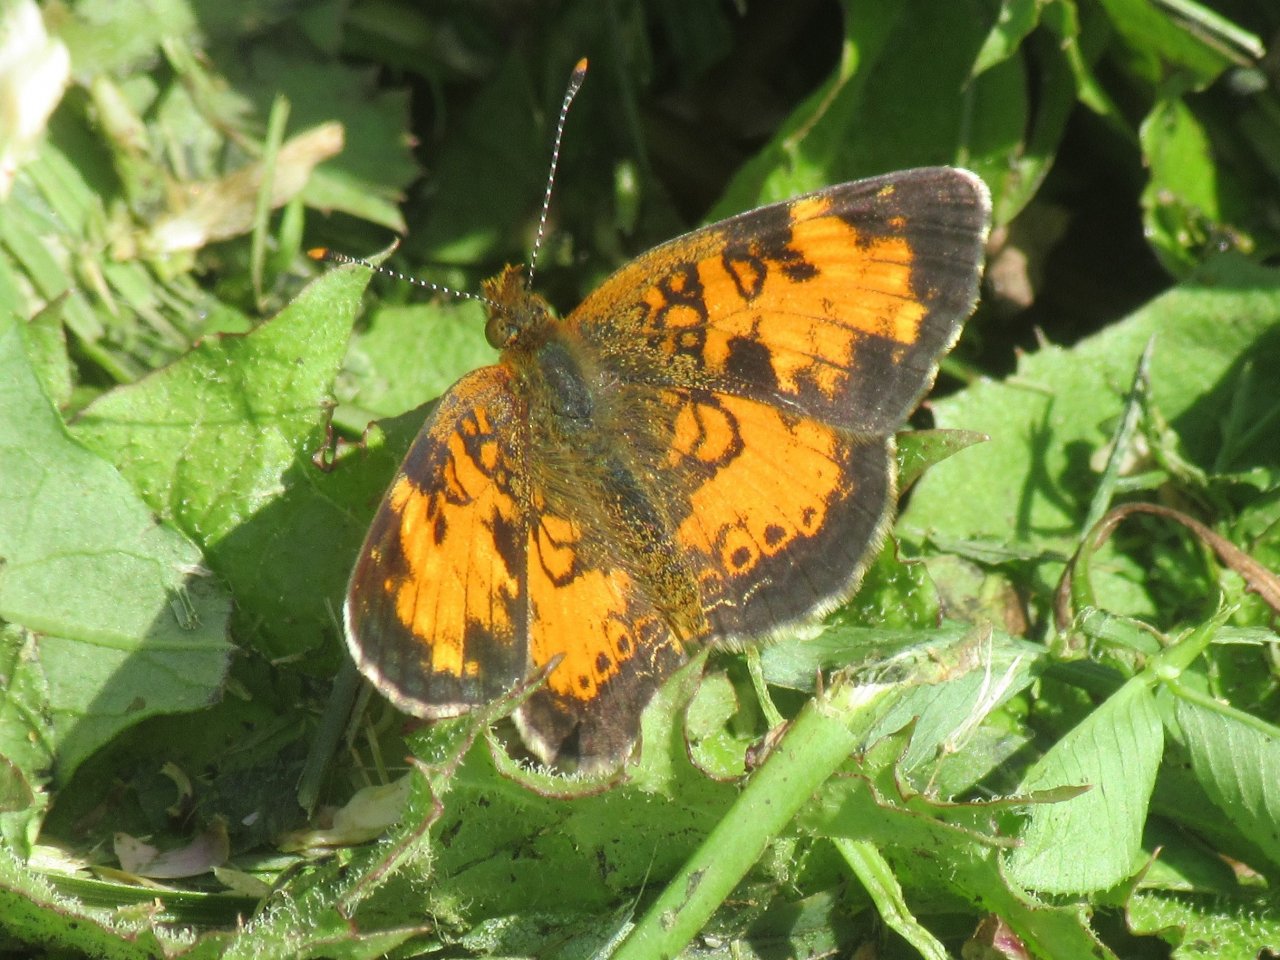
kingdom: Animalia
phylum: Arthropoda
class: Insecta
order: Lepidoptera
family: Nymphalidae
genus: Phyciodes
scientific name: Phyciodes tharos
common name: Pearl Crescent
